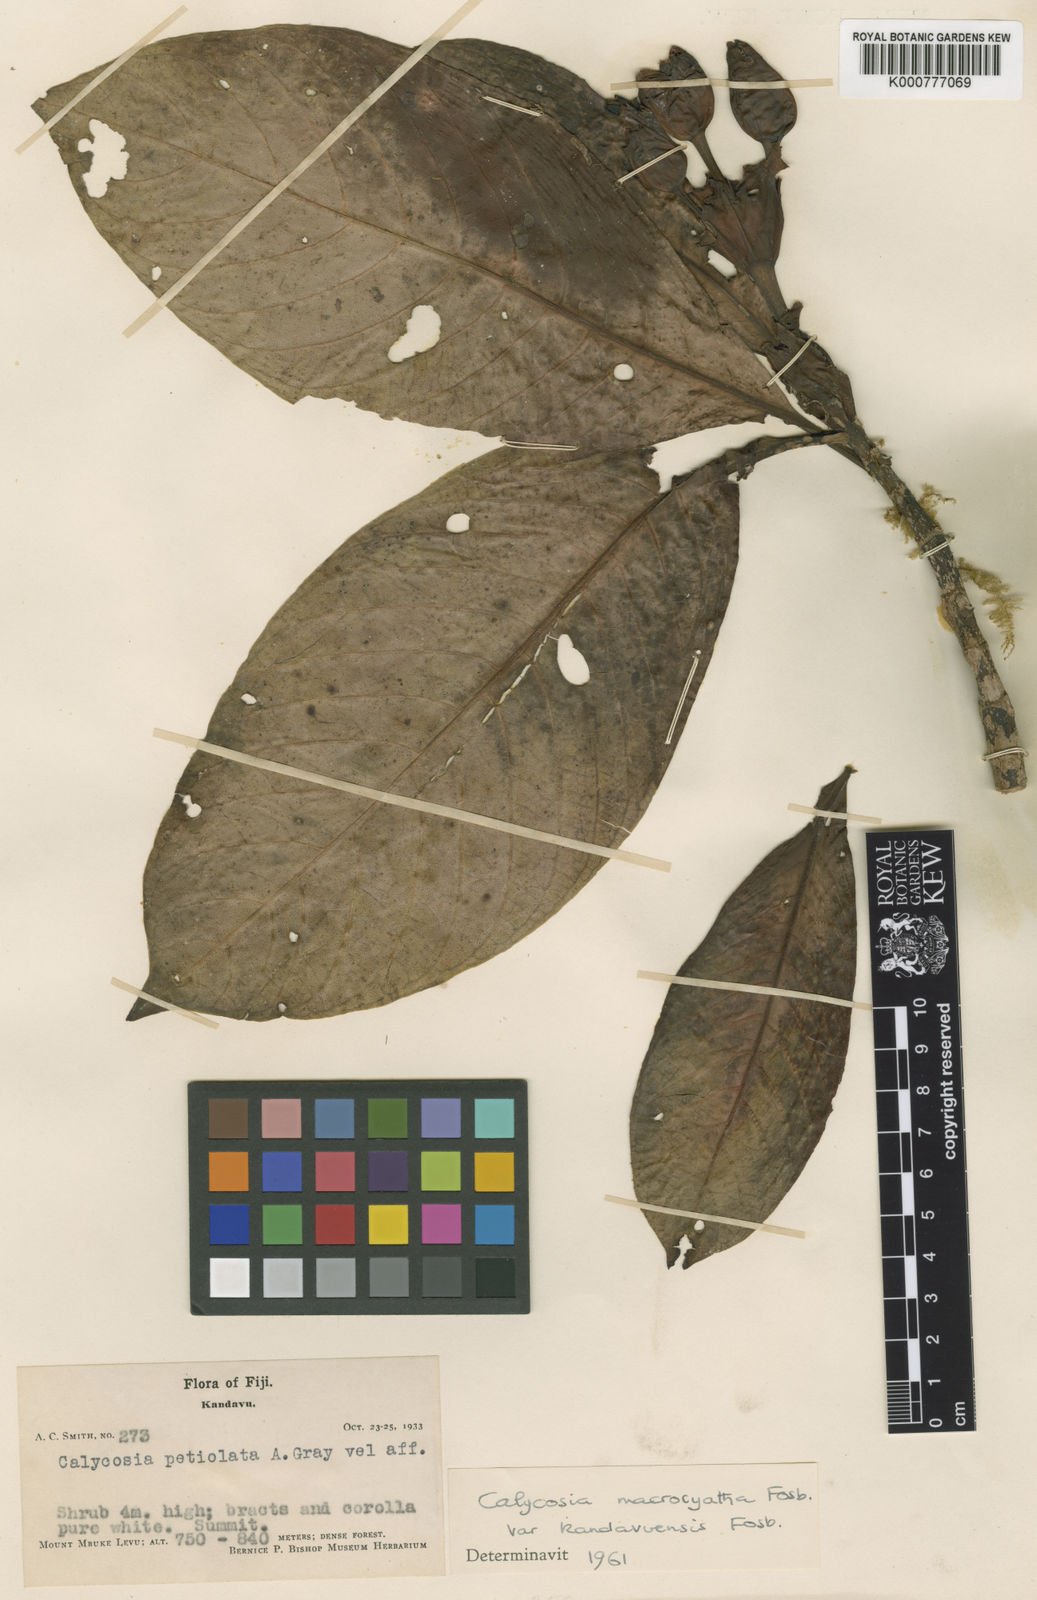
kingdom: Plantae
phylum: Tracheophyta
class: Magnoliopsida
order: Gentianales
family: Rubiaceae
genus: Calycosia
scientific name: Calycosia macrocyatha
